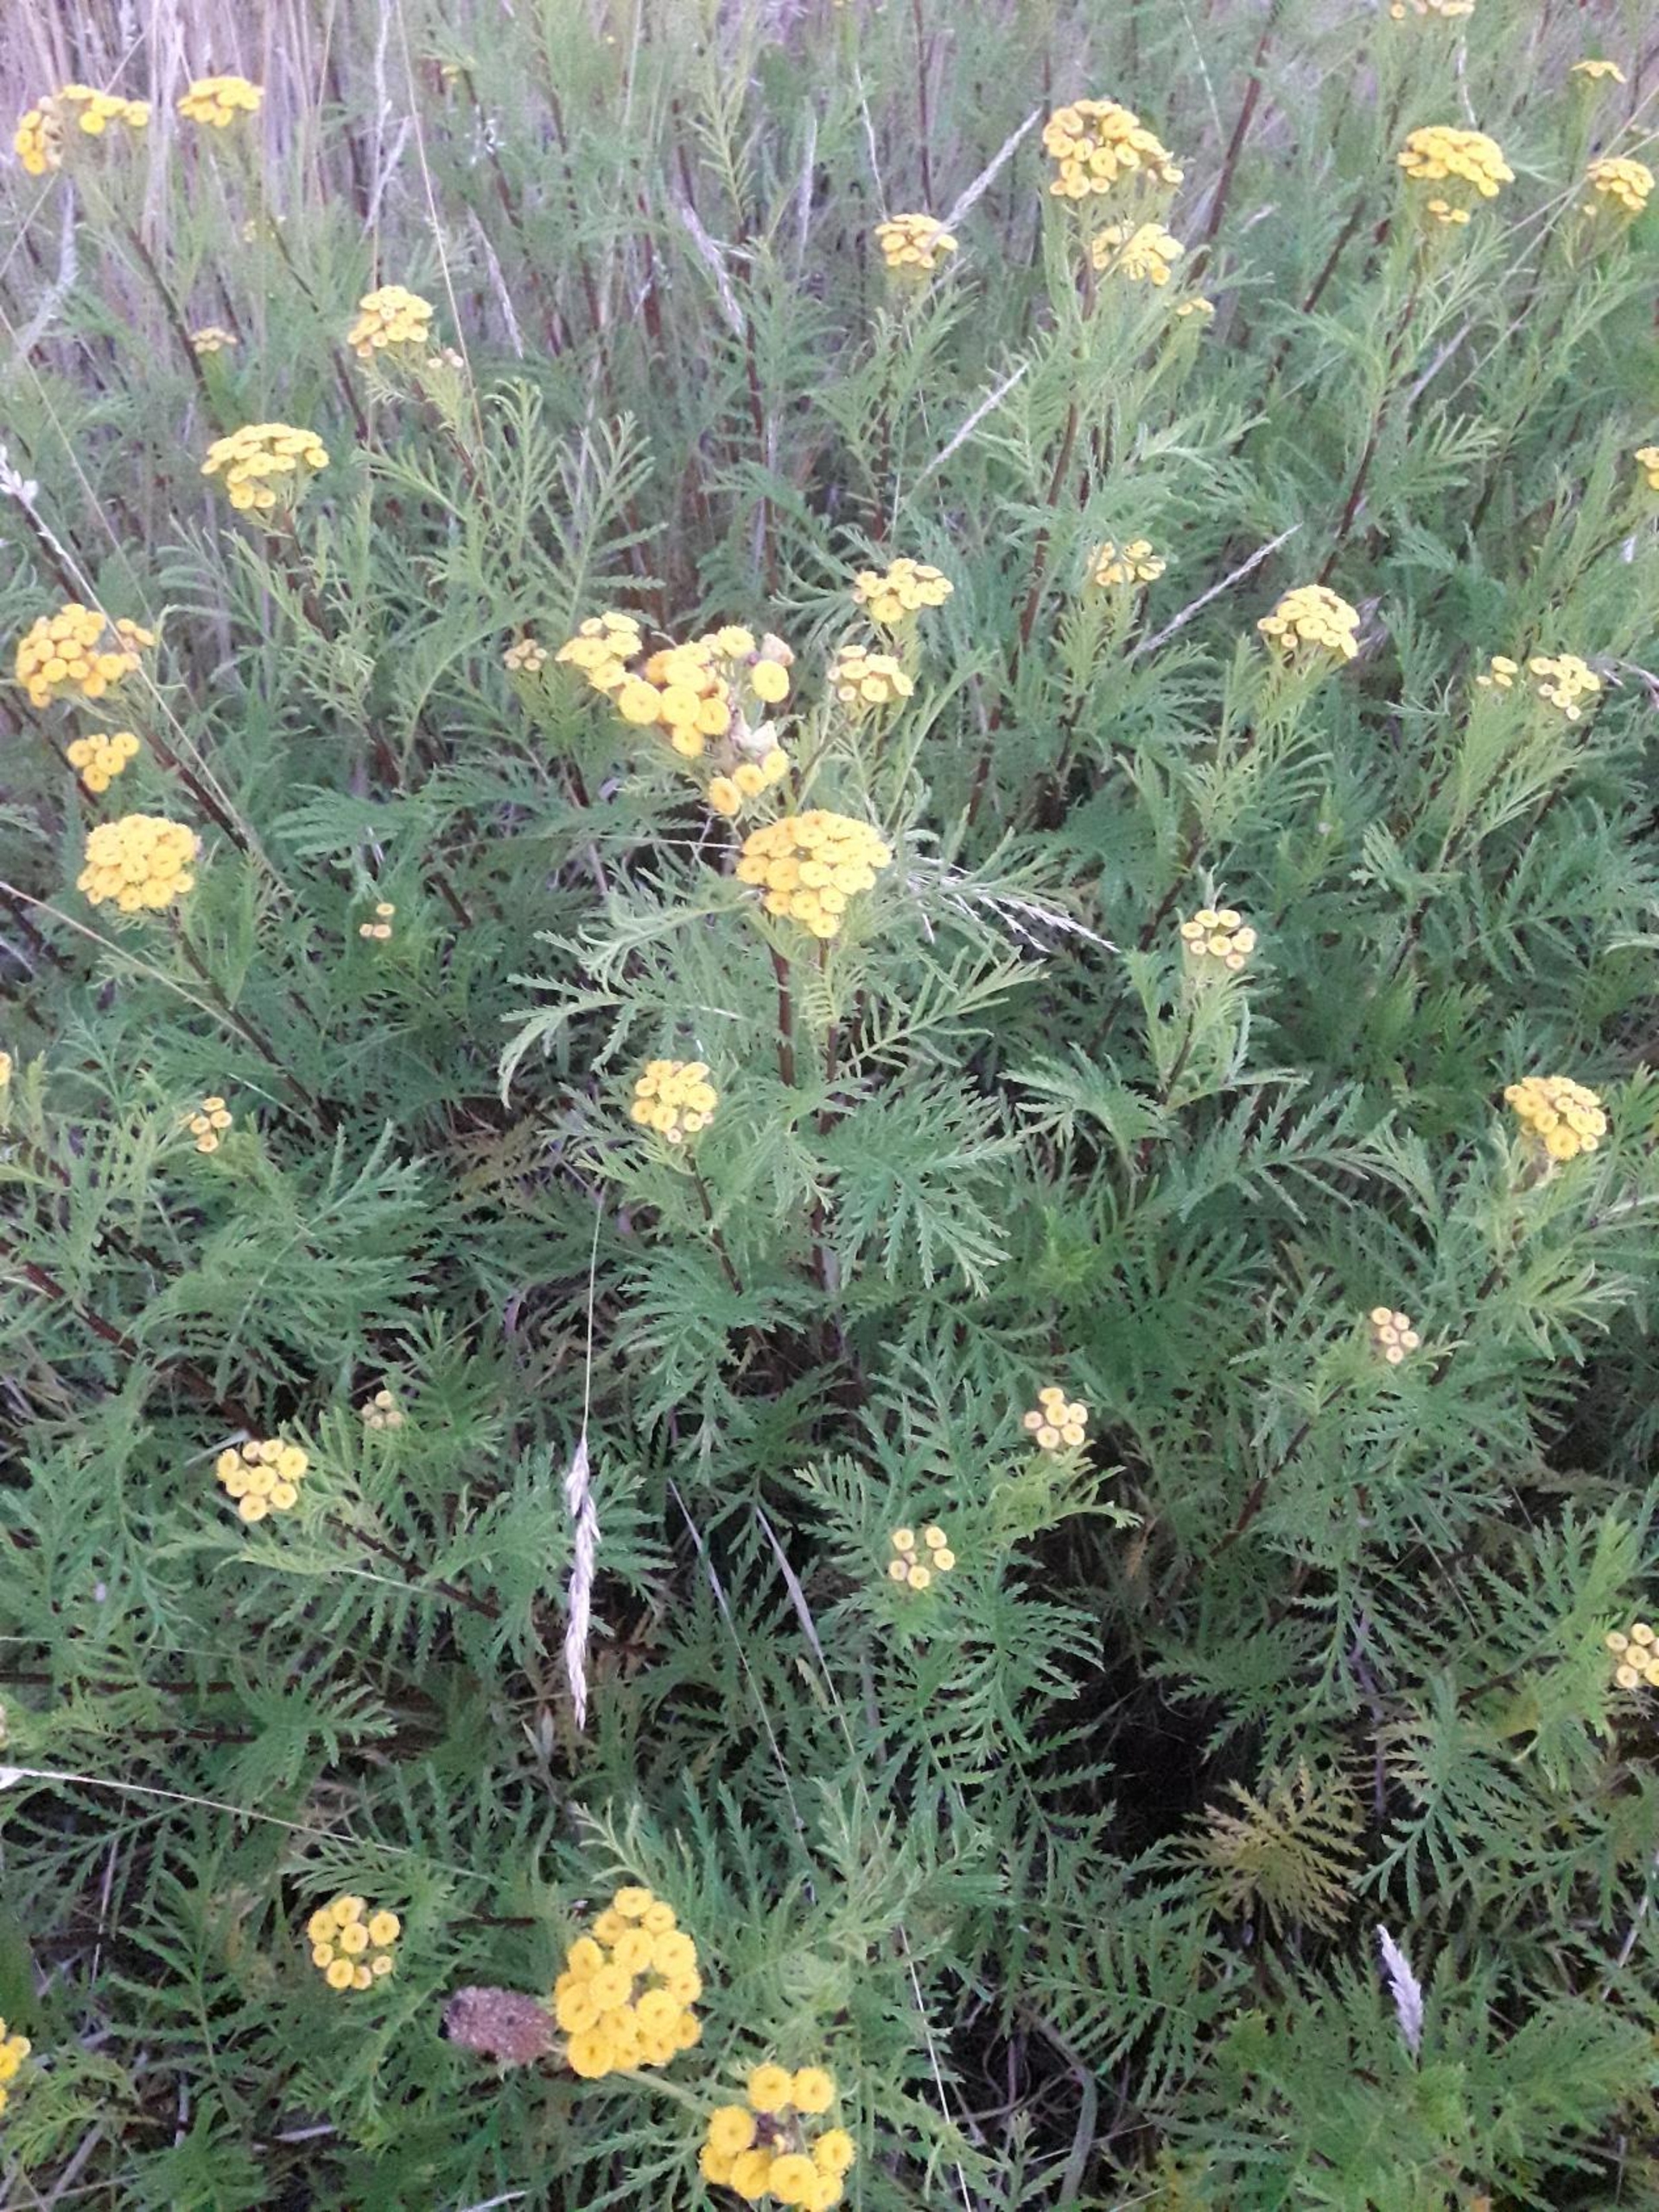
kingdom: Plantae
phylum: Tracheophyta
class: Magnoliopsida
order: Asterales
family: Asteraceae
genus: Tanacetum
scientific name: Tanacetum vulgare
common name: Rejnfan
